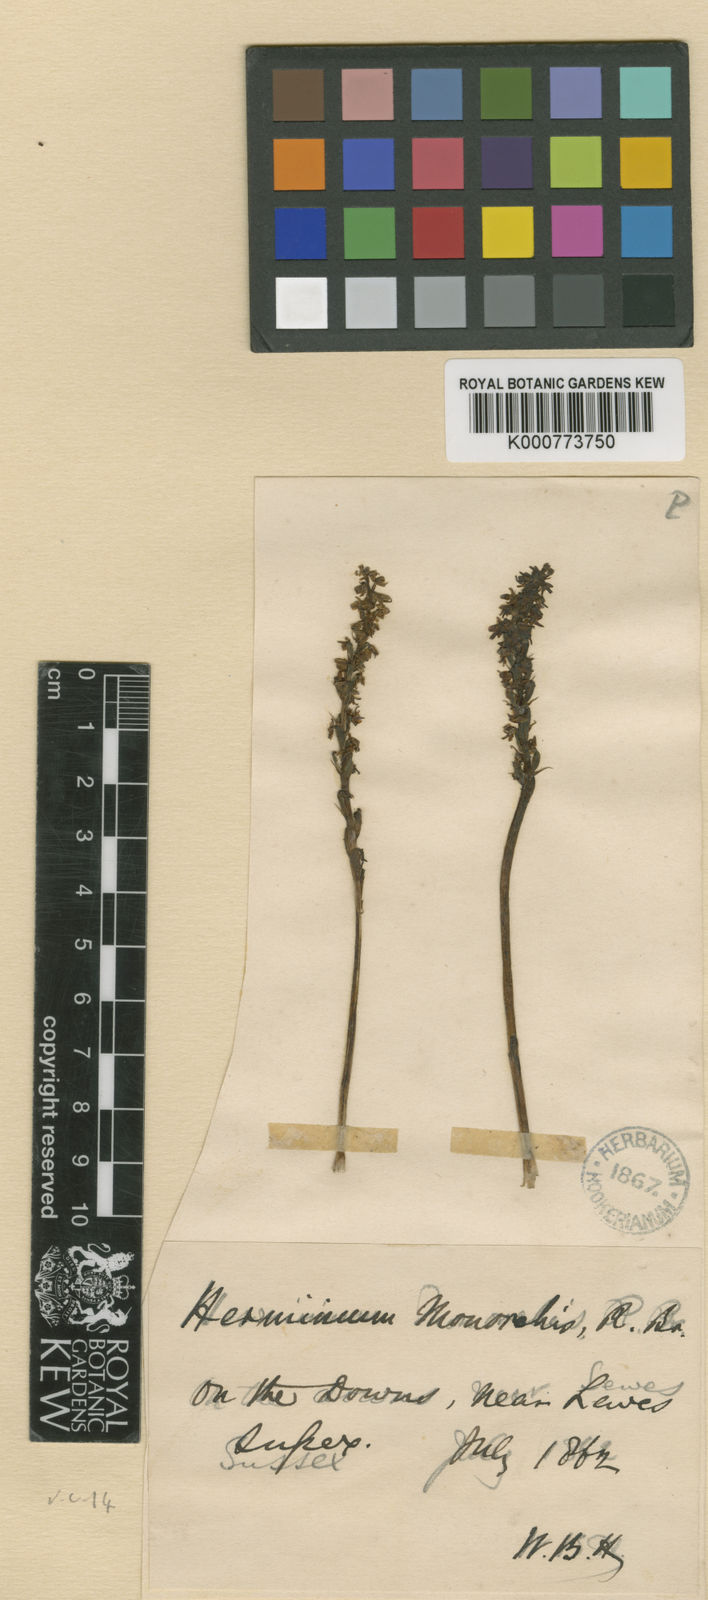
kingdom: Plantae
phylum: Tracheophyta
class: Liliopsida
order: Asparagales
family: Orchidaceae
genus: Herminium
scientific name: Herminium monorchis
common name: Musk orchid
